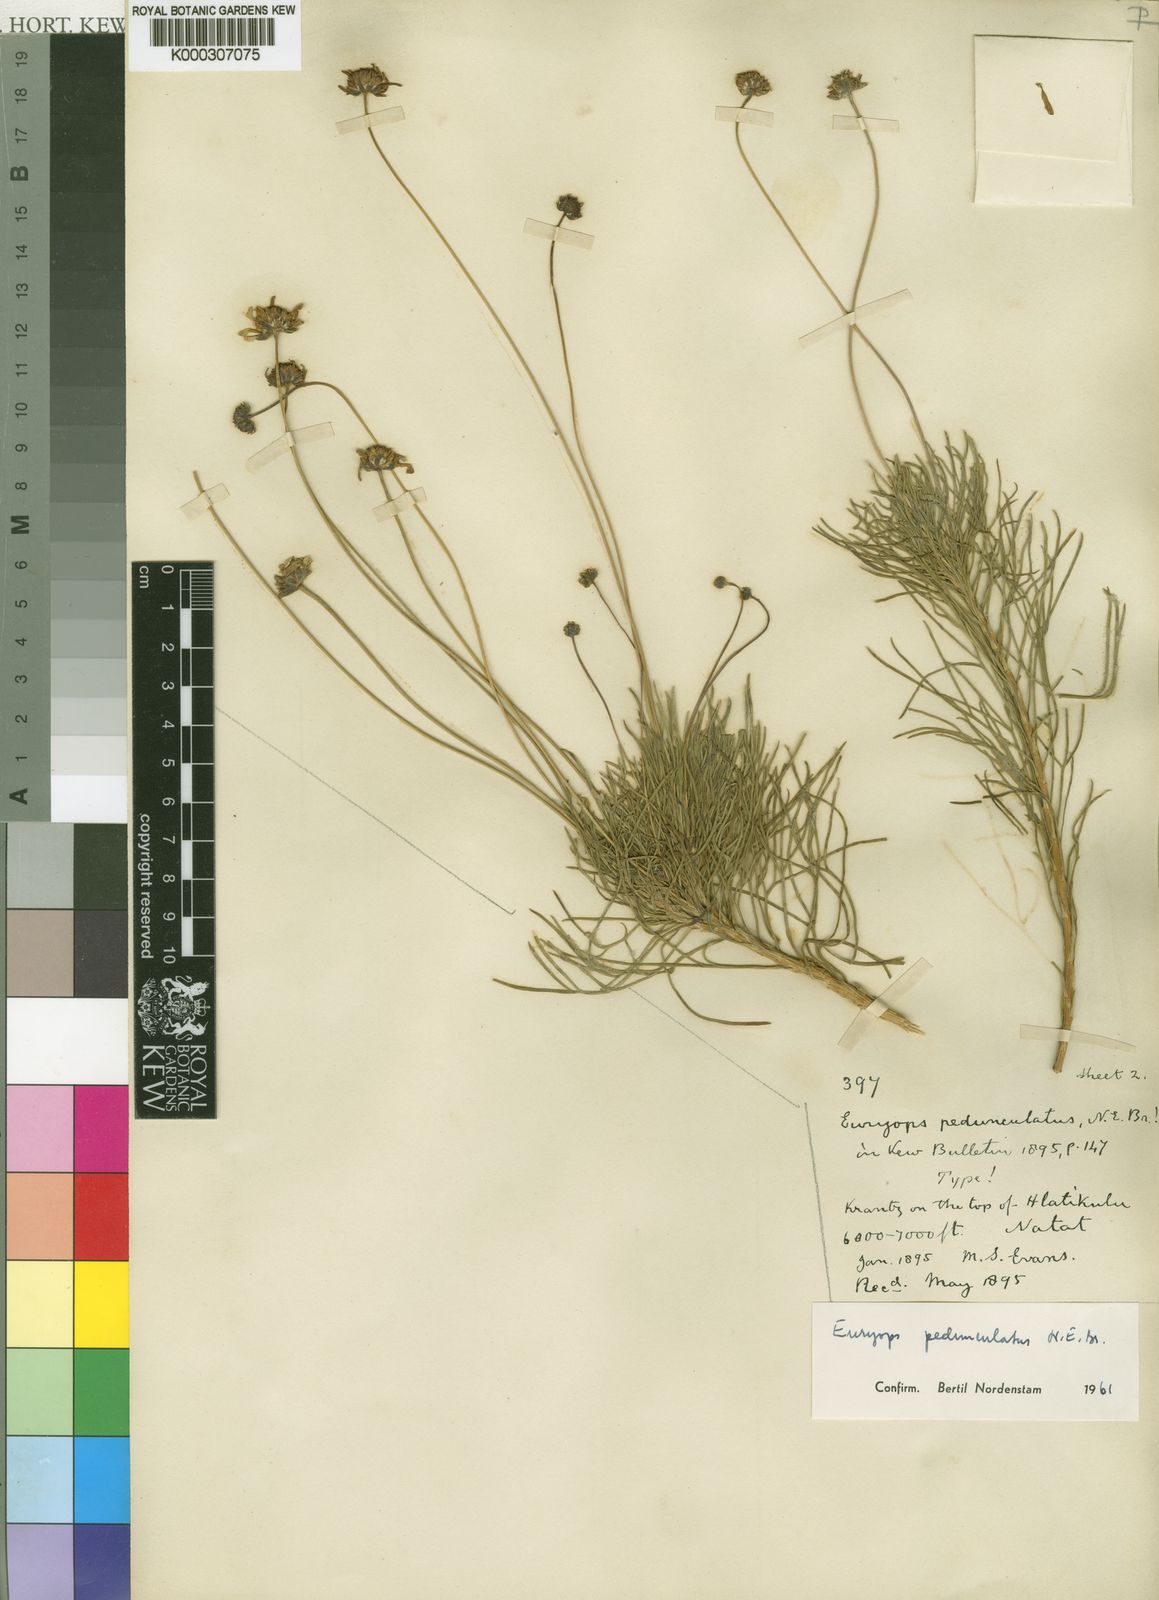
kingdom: Plantae
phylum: Tracheophyta
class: Magnoliopsida
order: Asterales
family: Asteraceae
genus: Euryops
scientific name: Euryops pedunculatus
